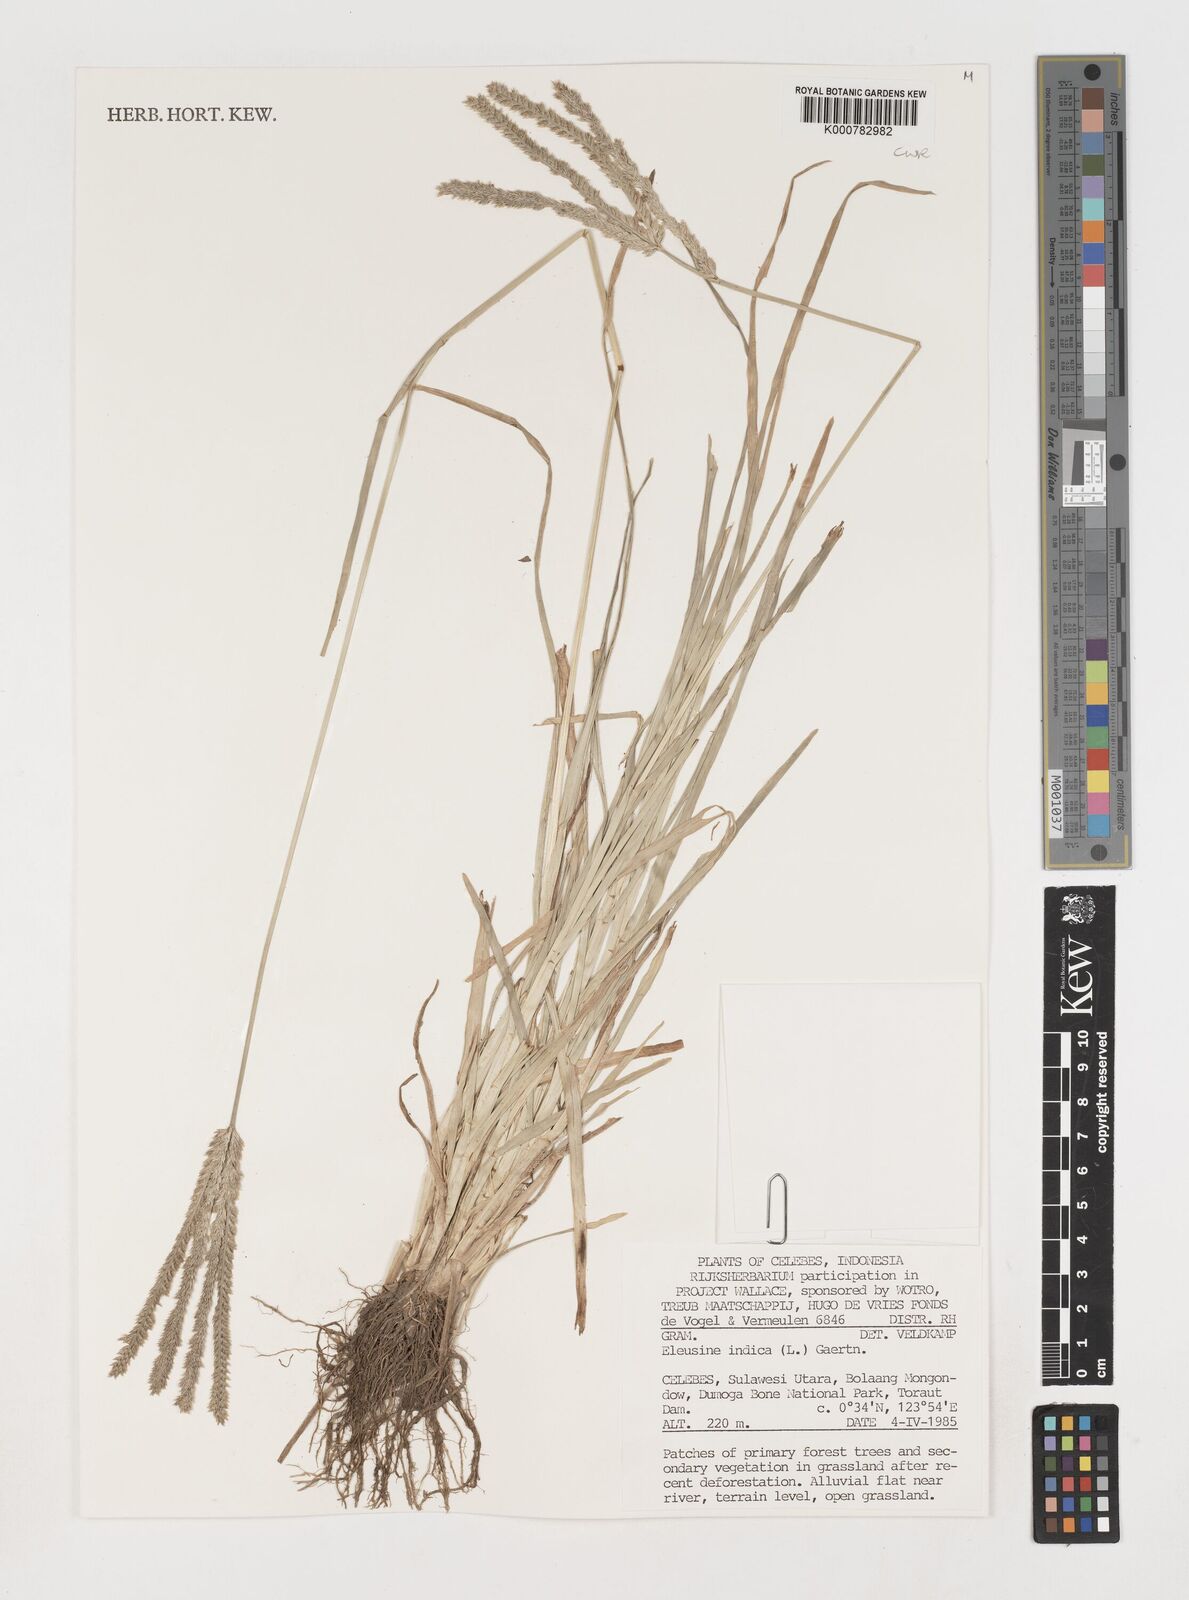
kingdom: Plantae
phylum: Tracheophyta
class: Liliopsida
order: Poales
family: Poaceae
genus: Eleusine
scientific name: Eleusine indica
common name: Yard-grass
